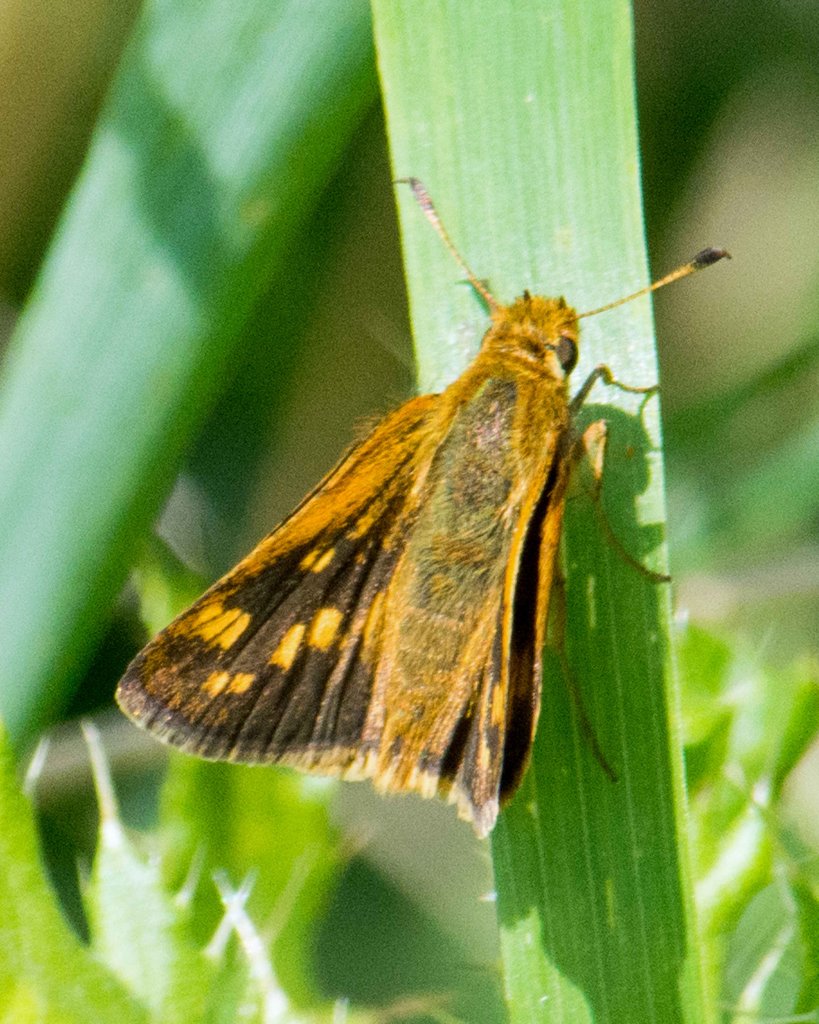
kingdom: Animalia
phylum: Arthropoda
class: Insecta
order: Lepidoptera
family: Hesperiidae
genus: Polites
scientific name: Polites coras
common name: Peck's Skipper
